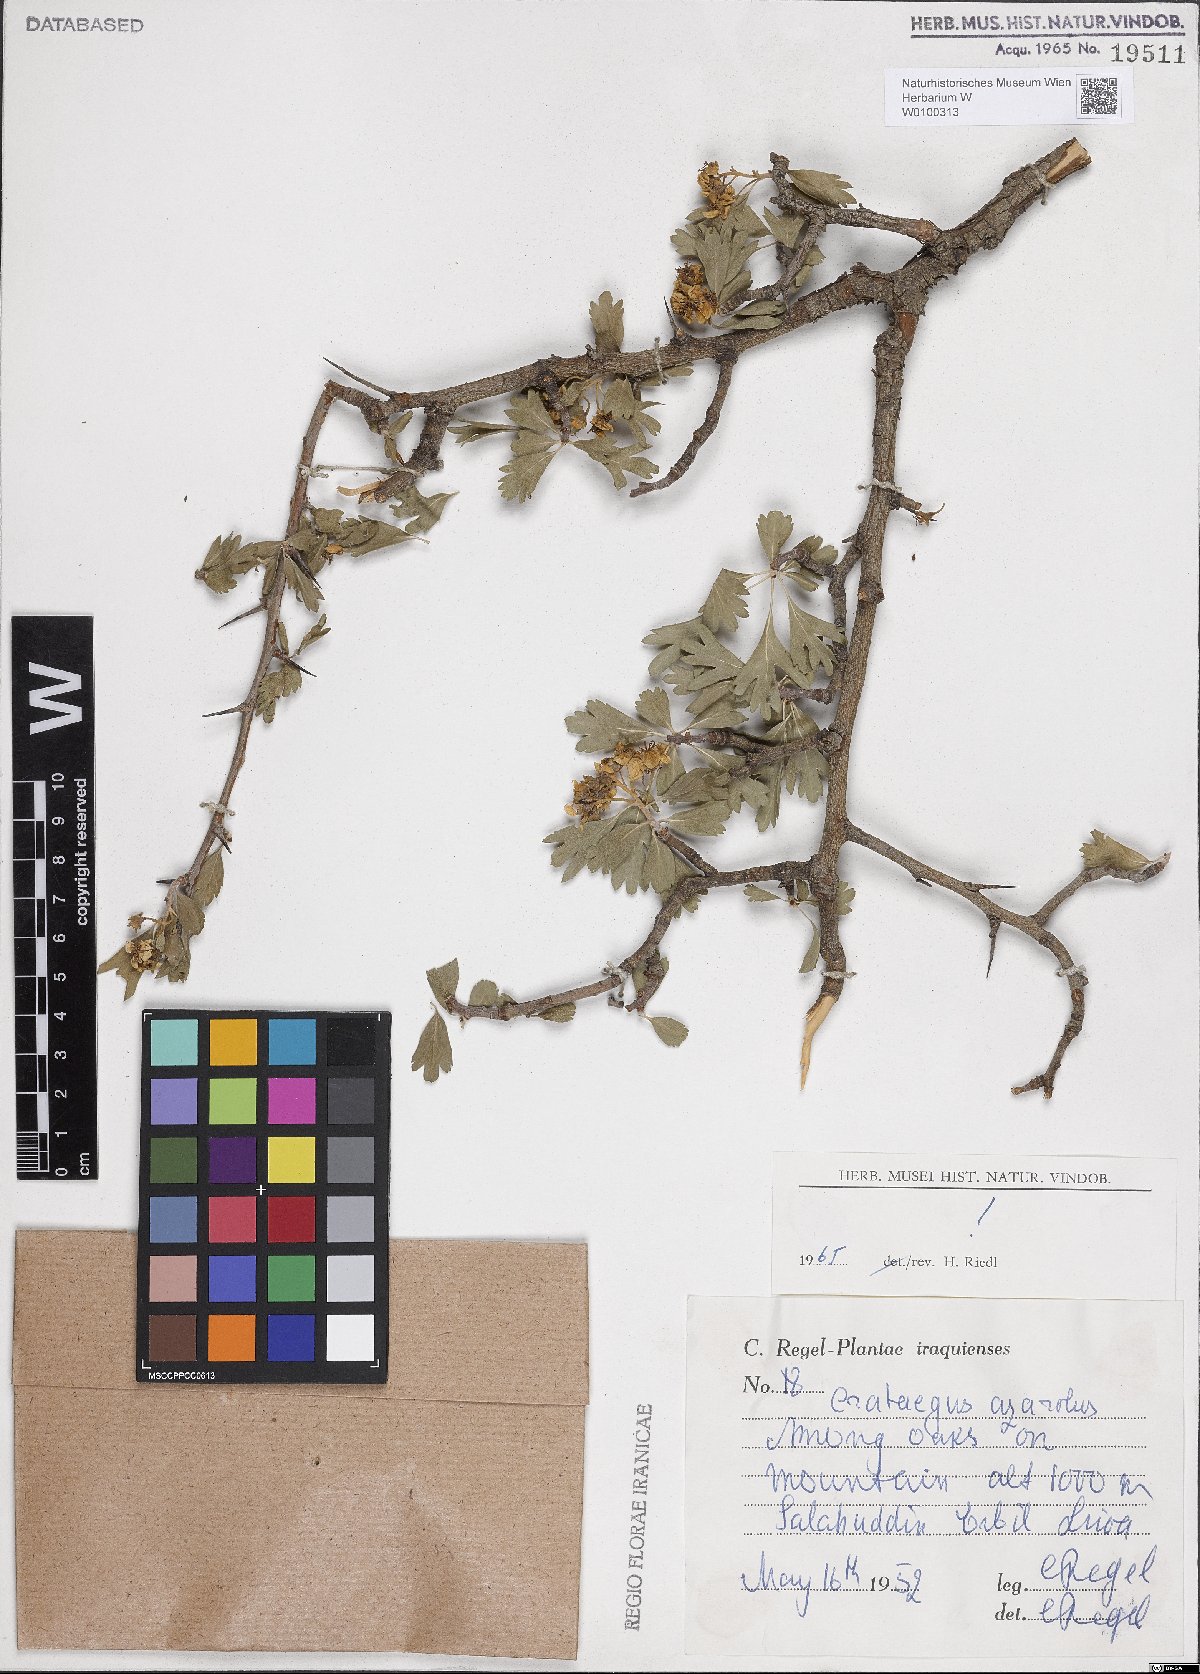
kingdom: Plantae
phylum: Tracheophyta
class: Magnoliopsida
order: Rosales
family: Rosaceae
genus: Crataegus
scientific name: Crataegus azarolus
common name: Azarole
